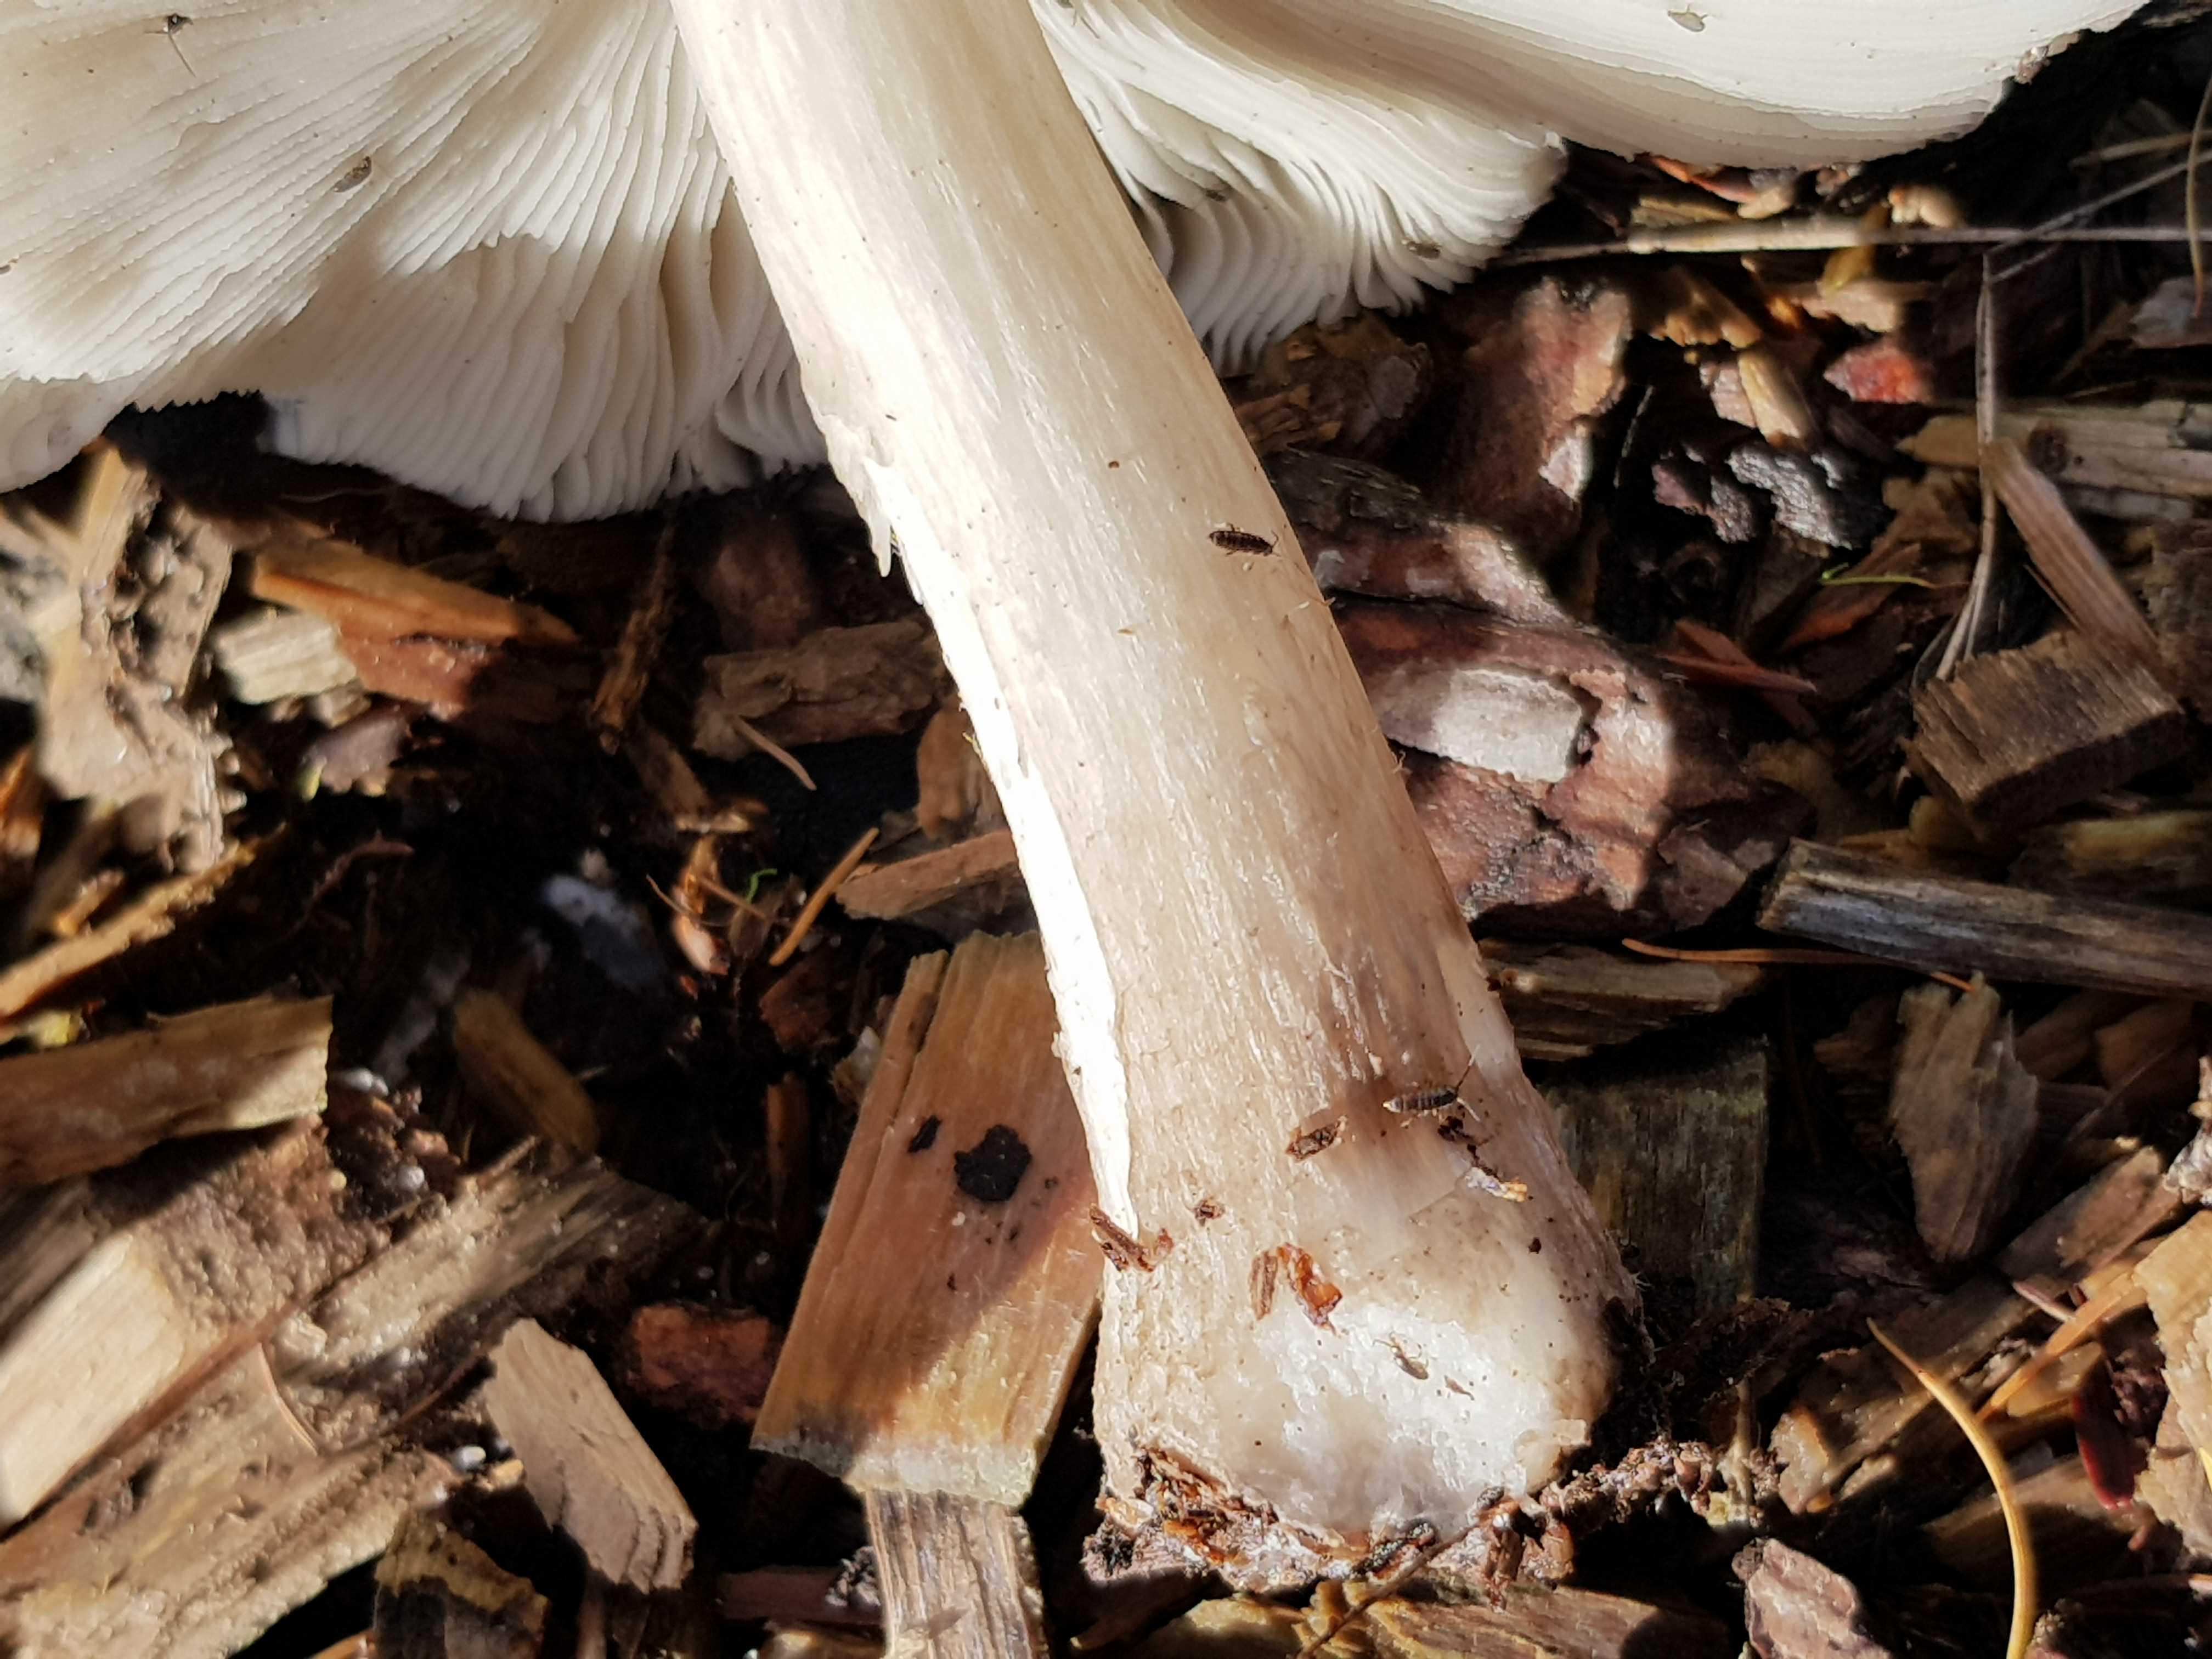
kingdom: Fungi
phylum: Basidiomycota
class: Agaricomycetes
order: Agaricales
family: Pluteaceae
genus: Pluteus
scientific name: Pluteus cervinus
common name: sodfarvet skærmhat
